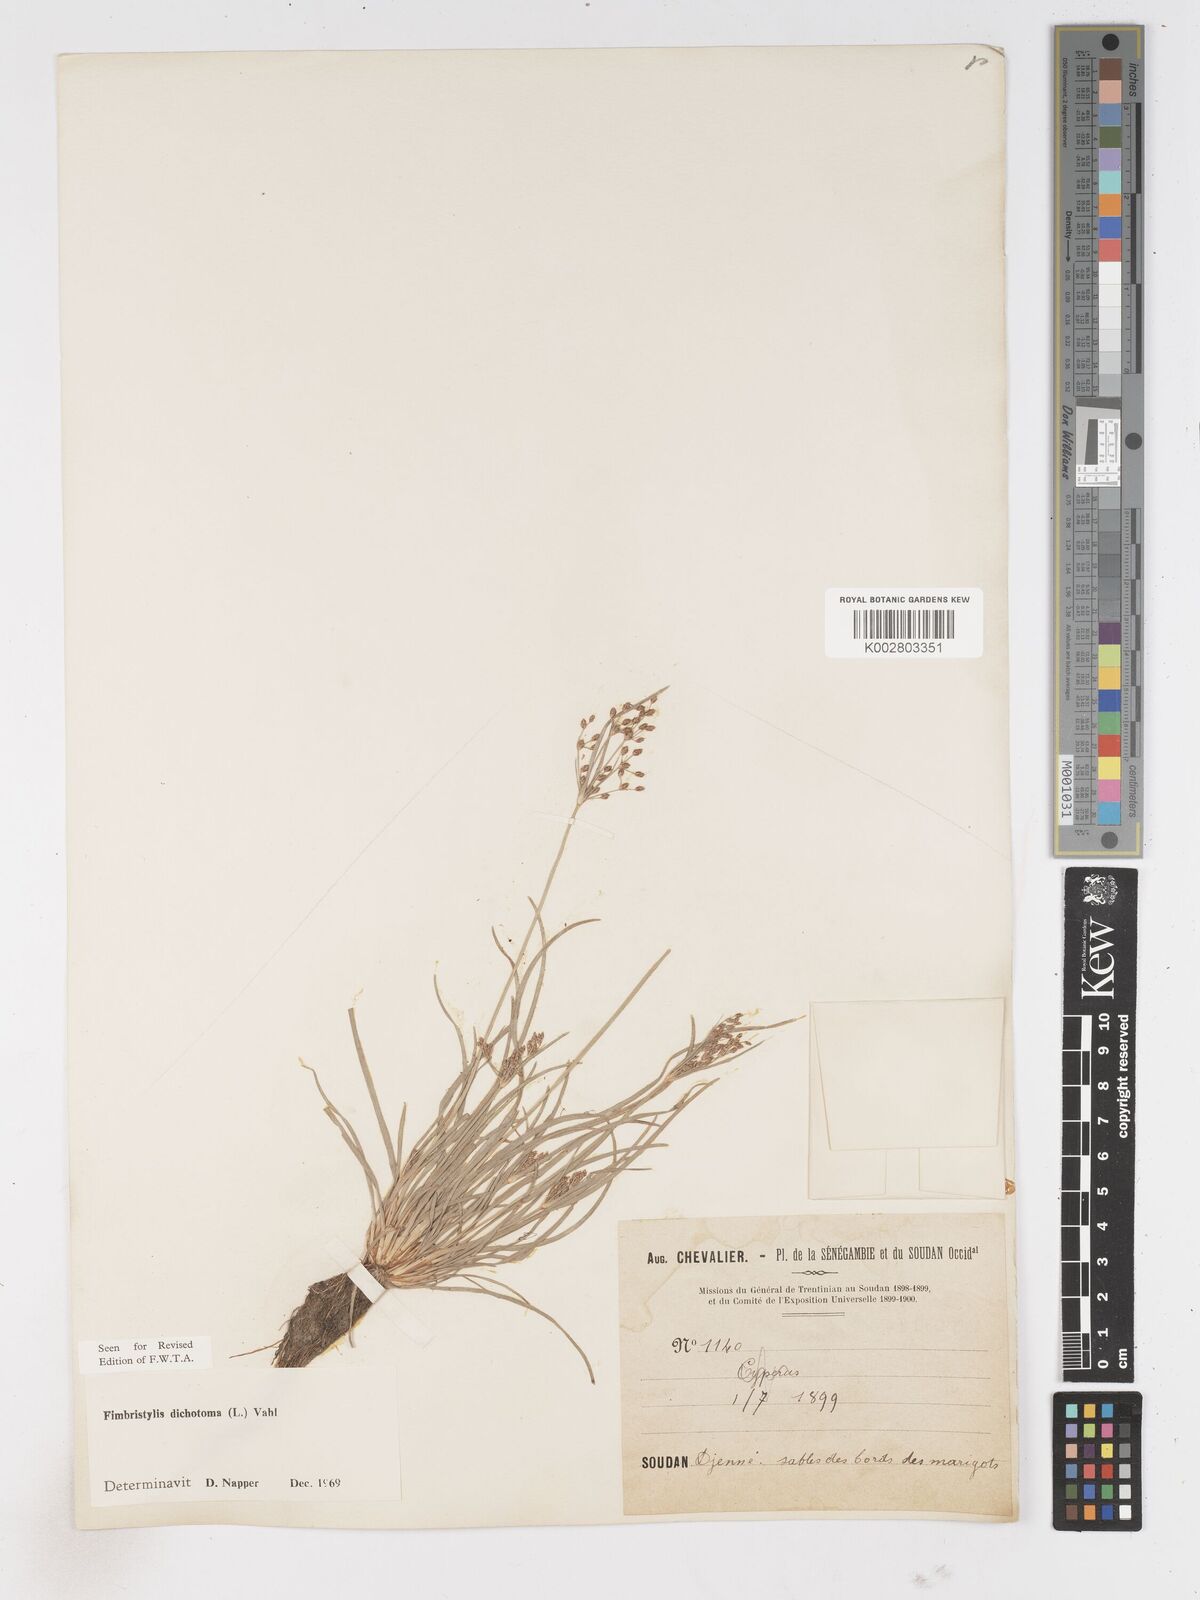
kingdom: Plantae
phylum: Tracheophyta
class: Liliopsida
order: Poales
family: Cyperaceae
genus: Fimbristylis
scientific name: Fimbristylis dichotoma
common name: Forked fimbry
